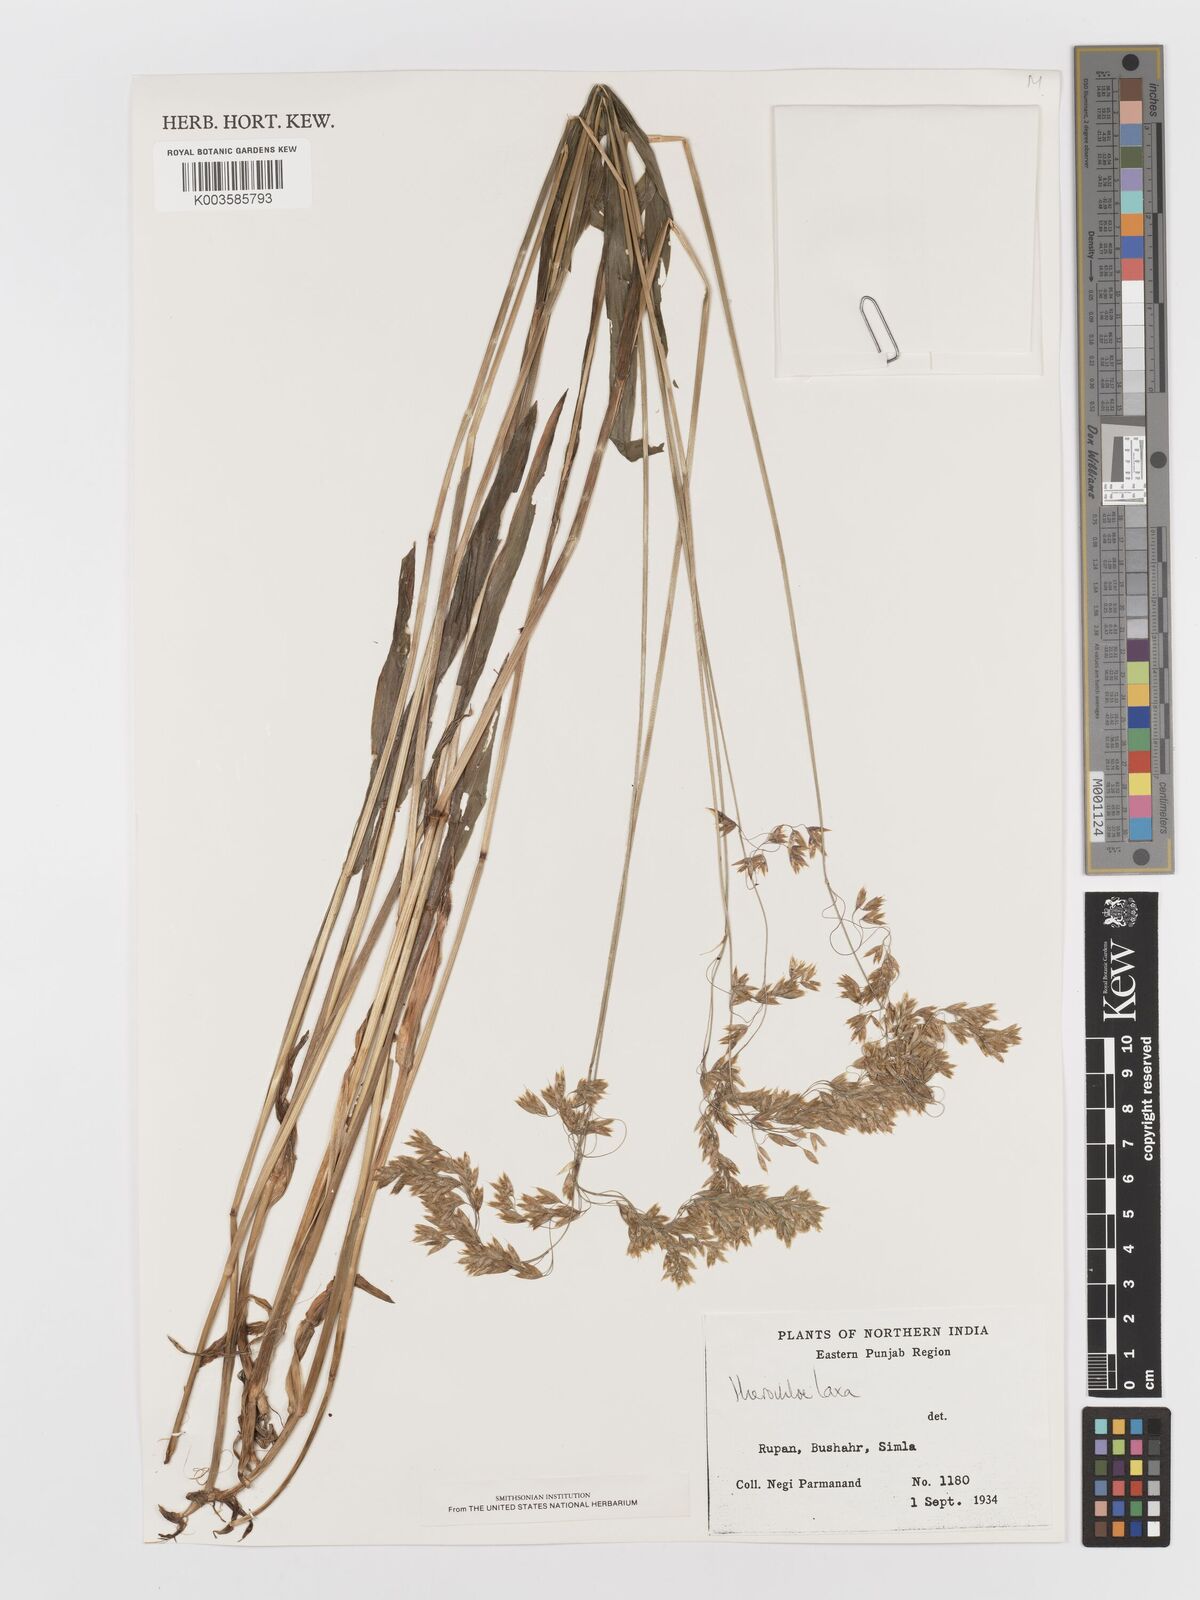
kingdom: Plantae
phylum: Tracheophyta
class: Liliopsida
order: Poales
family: Poaceae
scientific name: Poaceae
